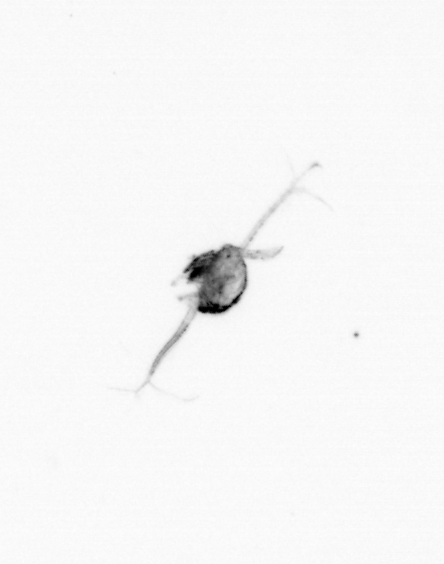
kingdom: Animalia
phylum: Arthropoda
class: Copepoda
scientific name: Copepoda
